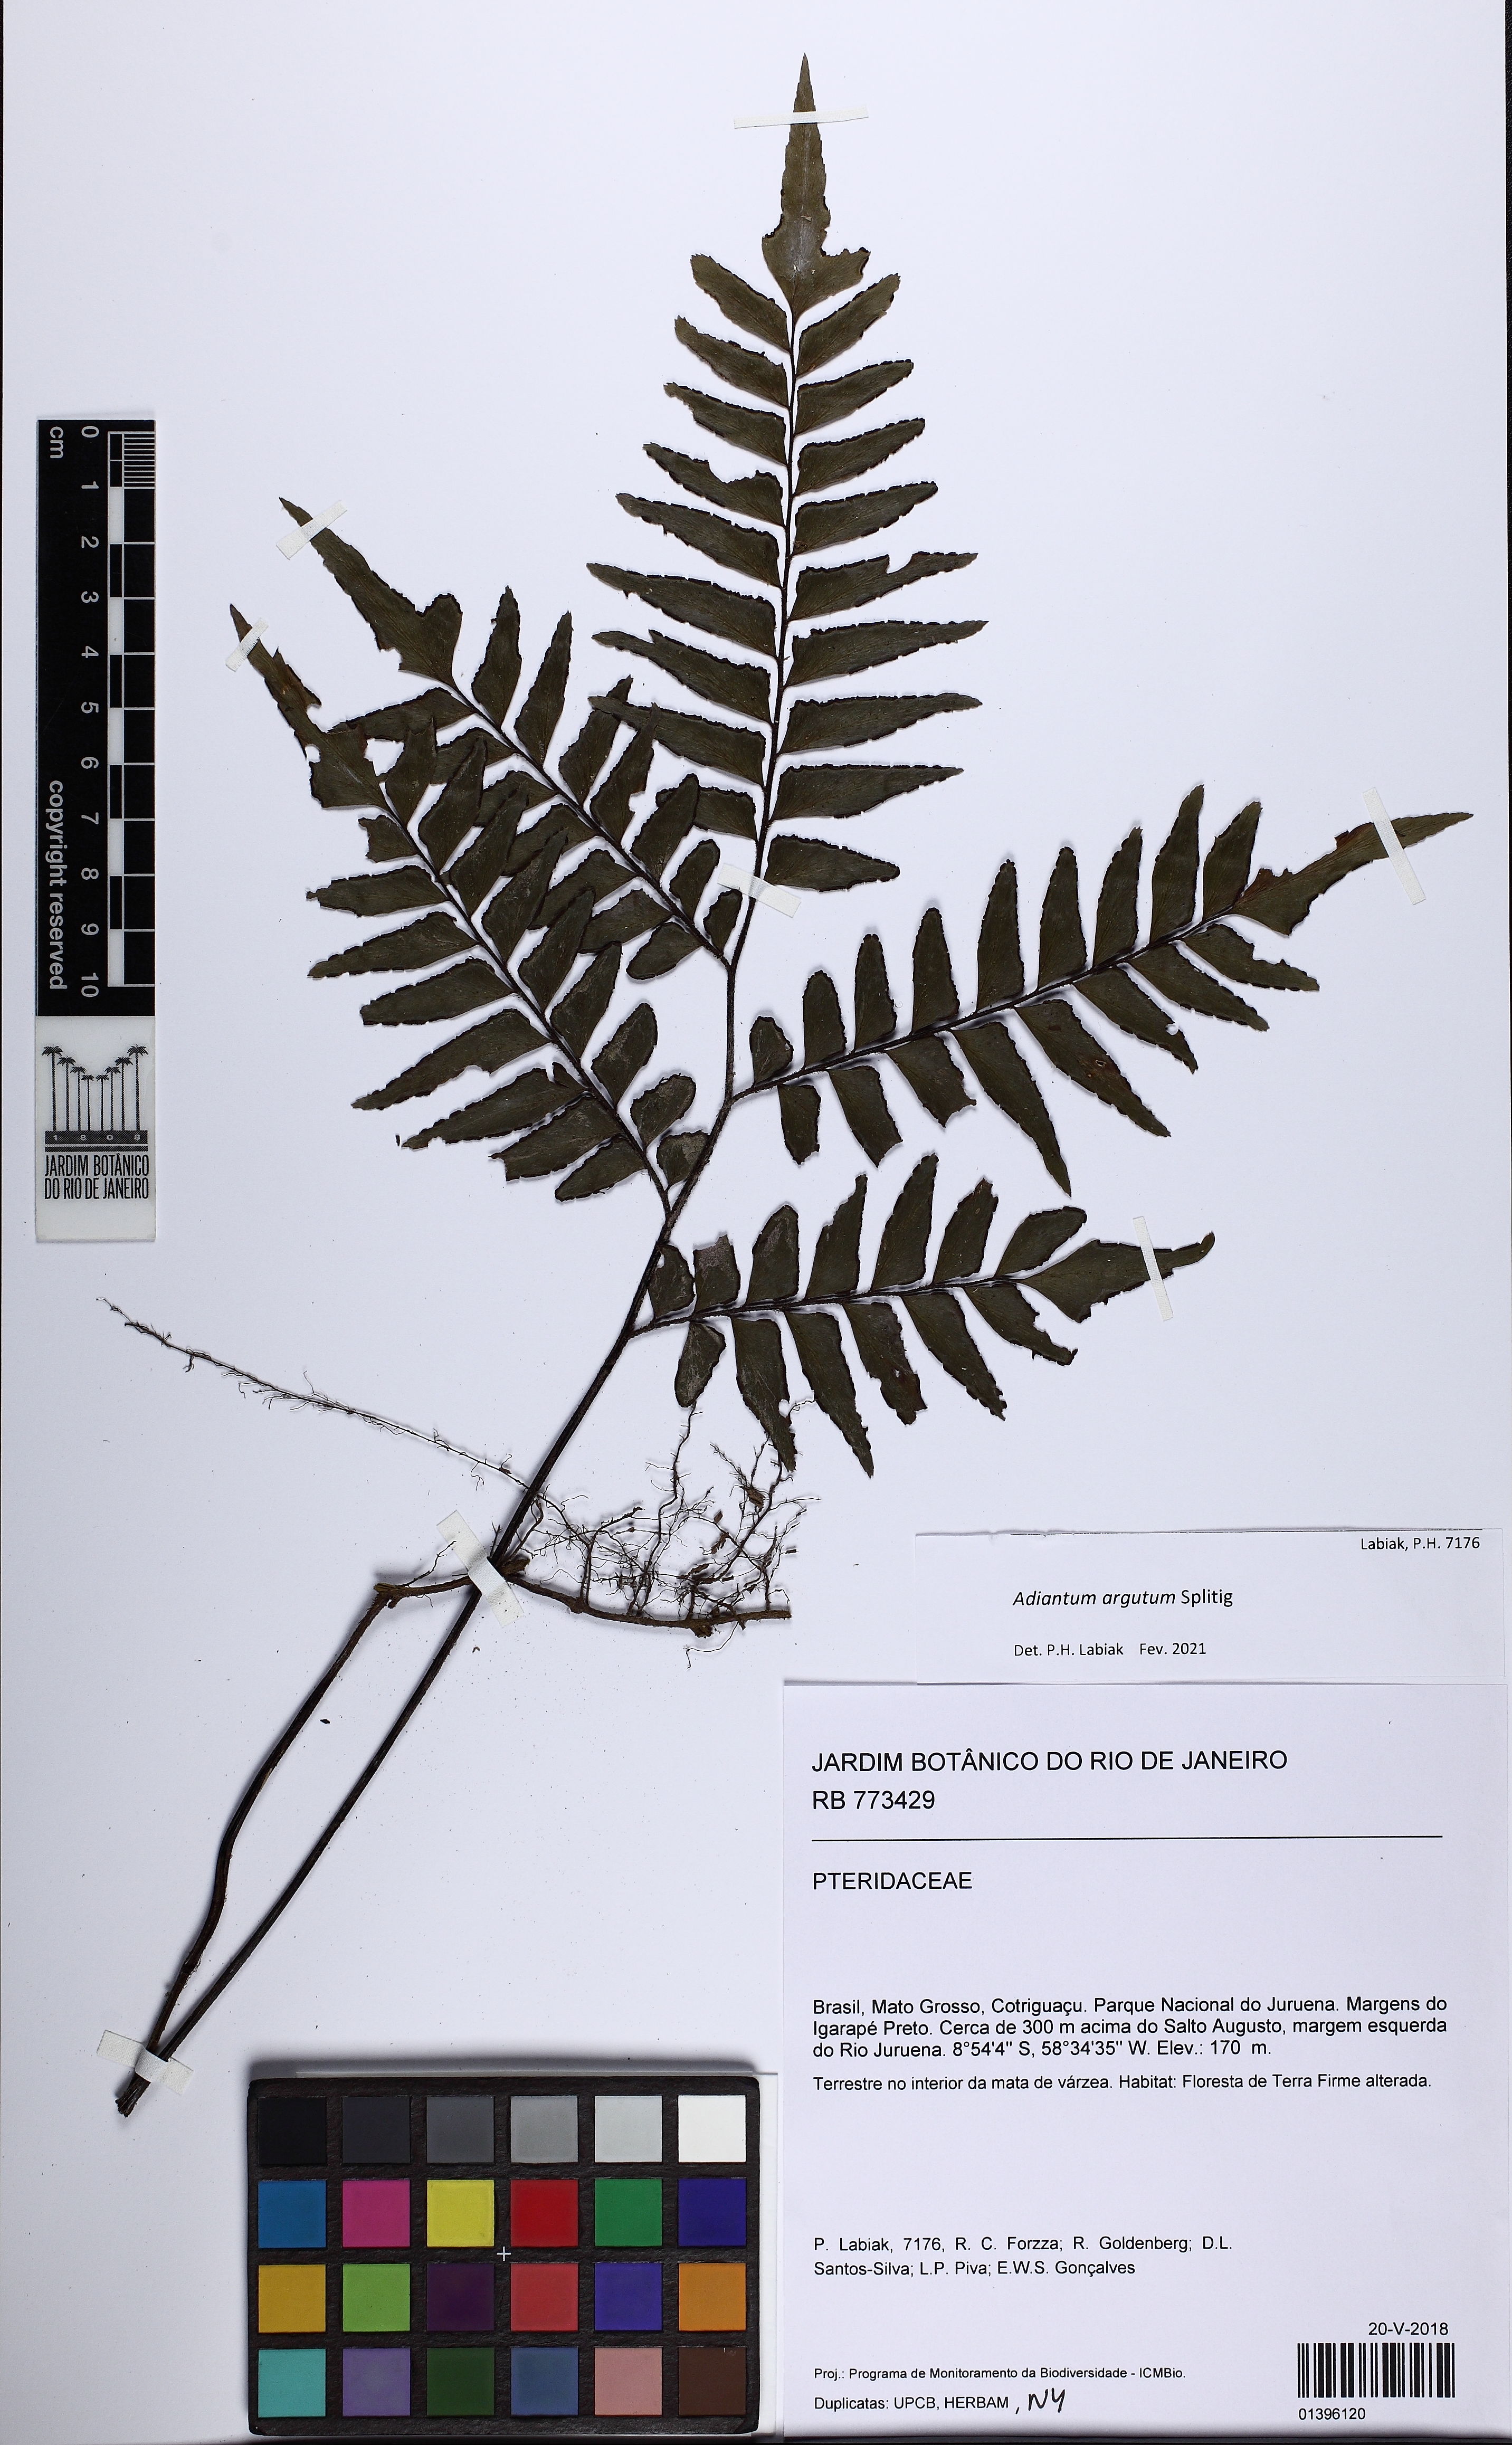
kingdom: Plantae
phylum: Tracheophyta
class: Polypodiopsida
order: Polypodiales
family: Pteridaceae
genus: Adiantum
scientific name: Adiantum argutum
